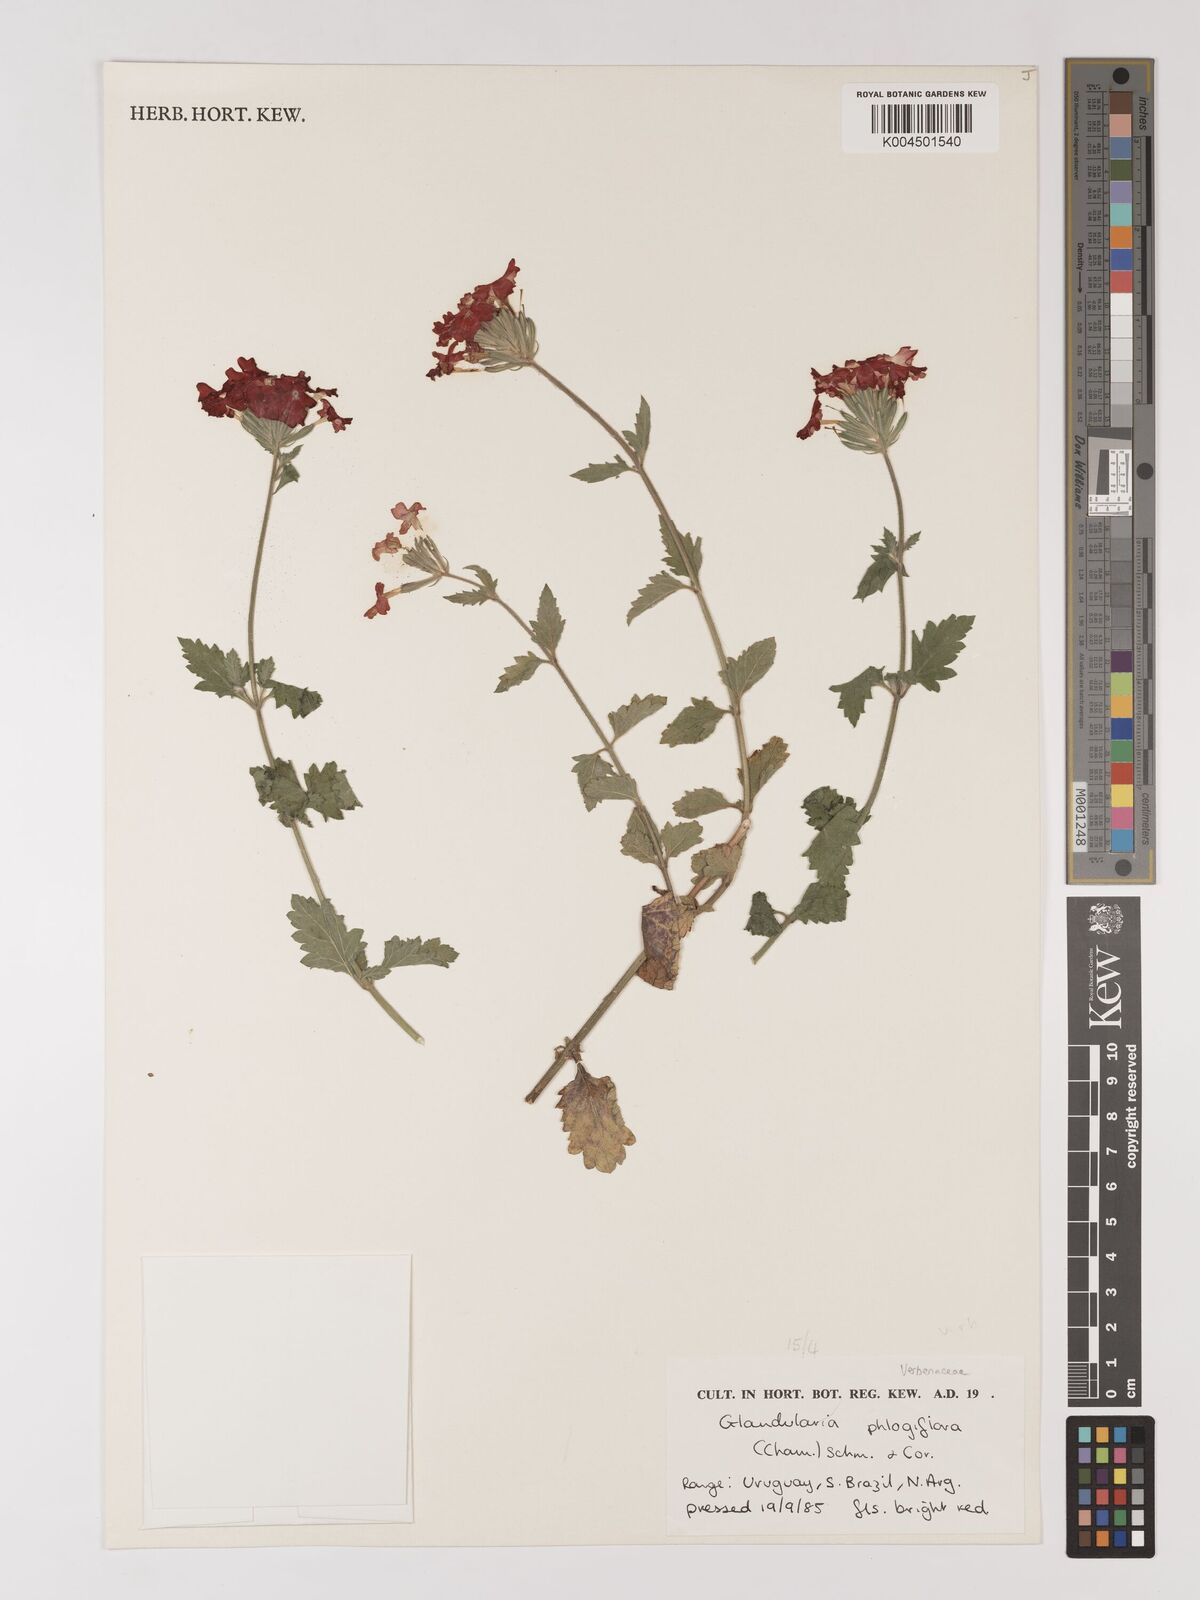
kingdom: Plantae
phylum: Tracheophyta
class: Magnoliopsida
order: Lamiales
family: Verbenaceae
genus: Verbena
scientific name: Verbena phlogiflora
